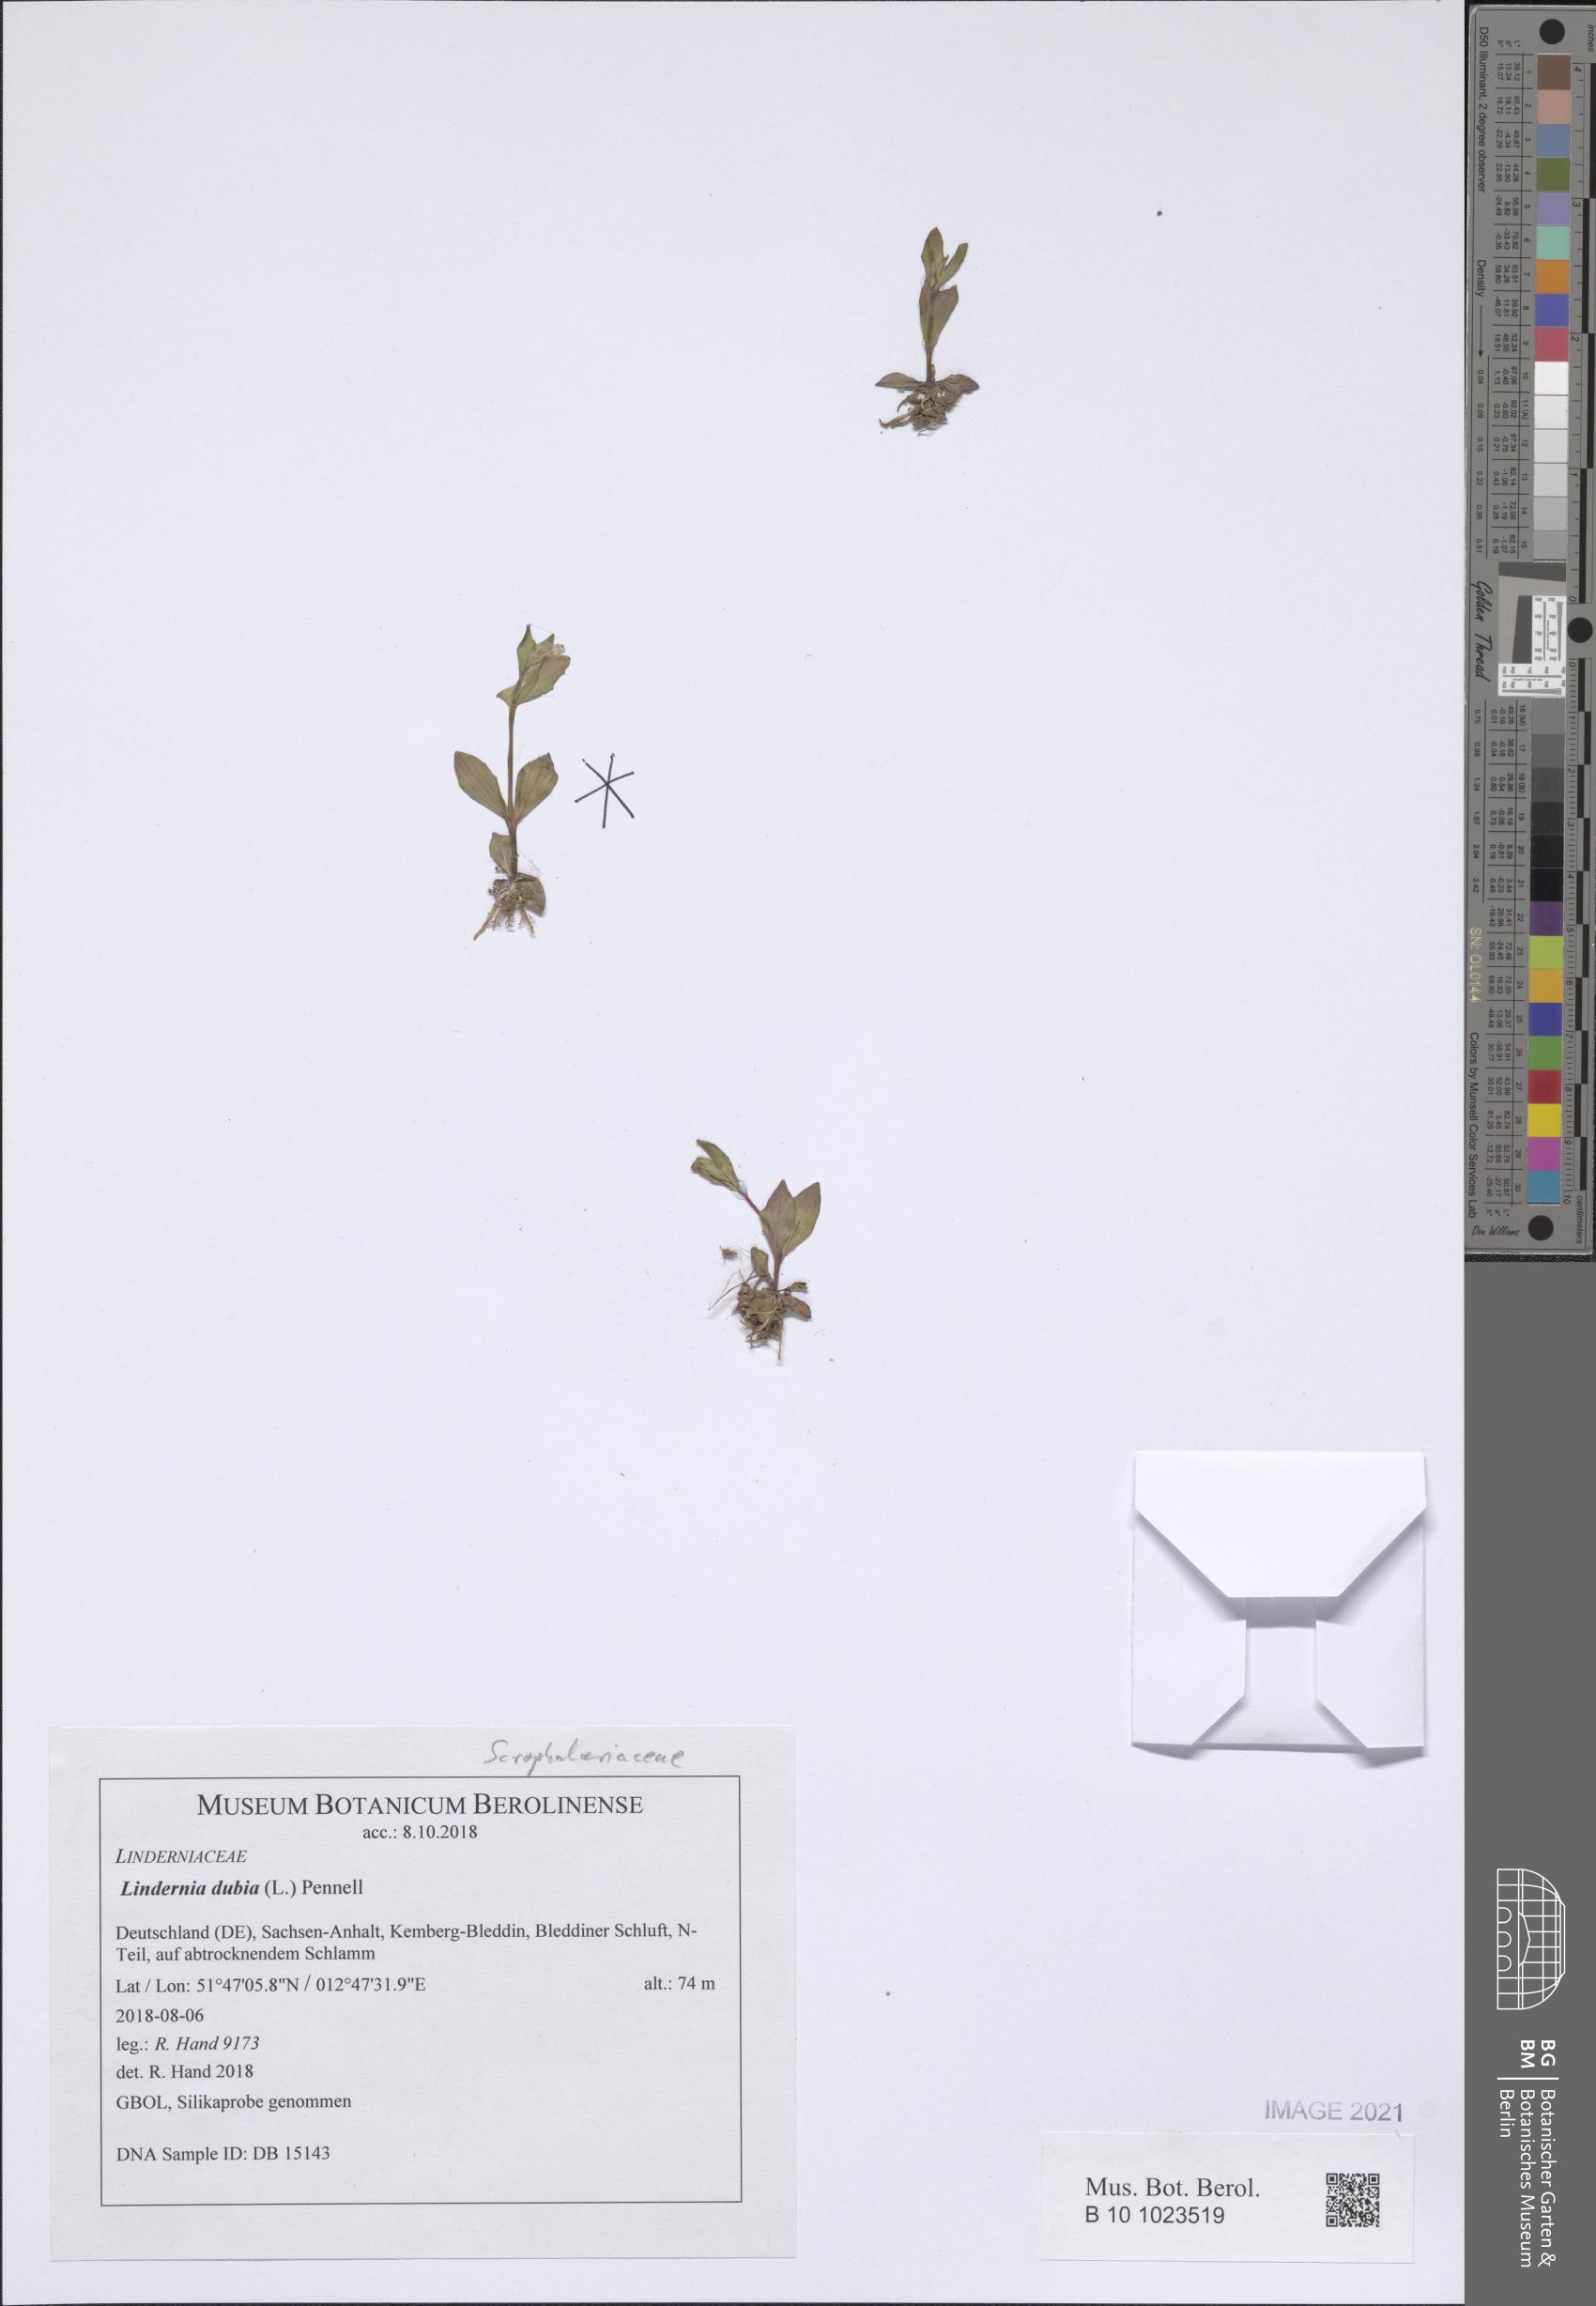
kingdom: Plantae
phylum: Tracheophyta
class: Magnoliopsida
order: Lamiales
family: Linderniaceae
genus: Lindernia
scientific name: Lindernia dubia
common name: Annual false pimpernel
